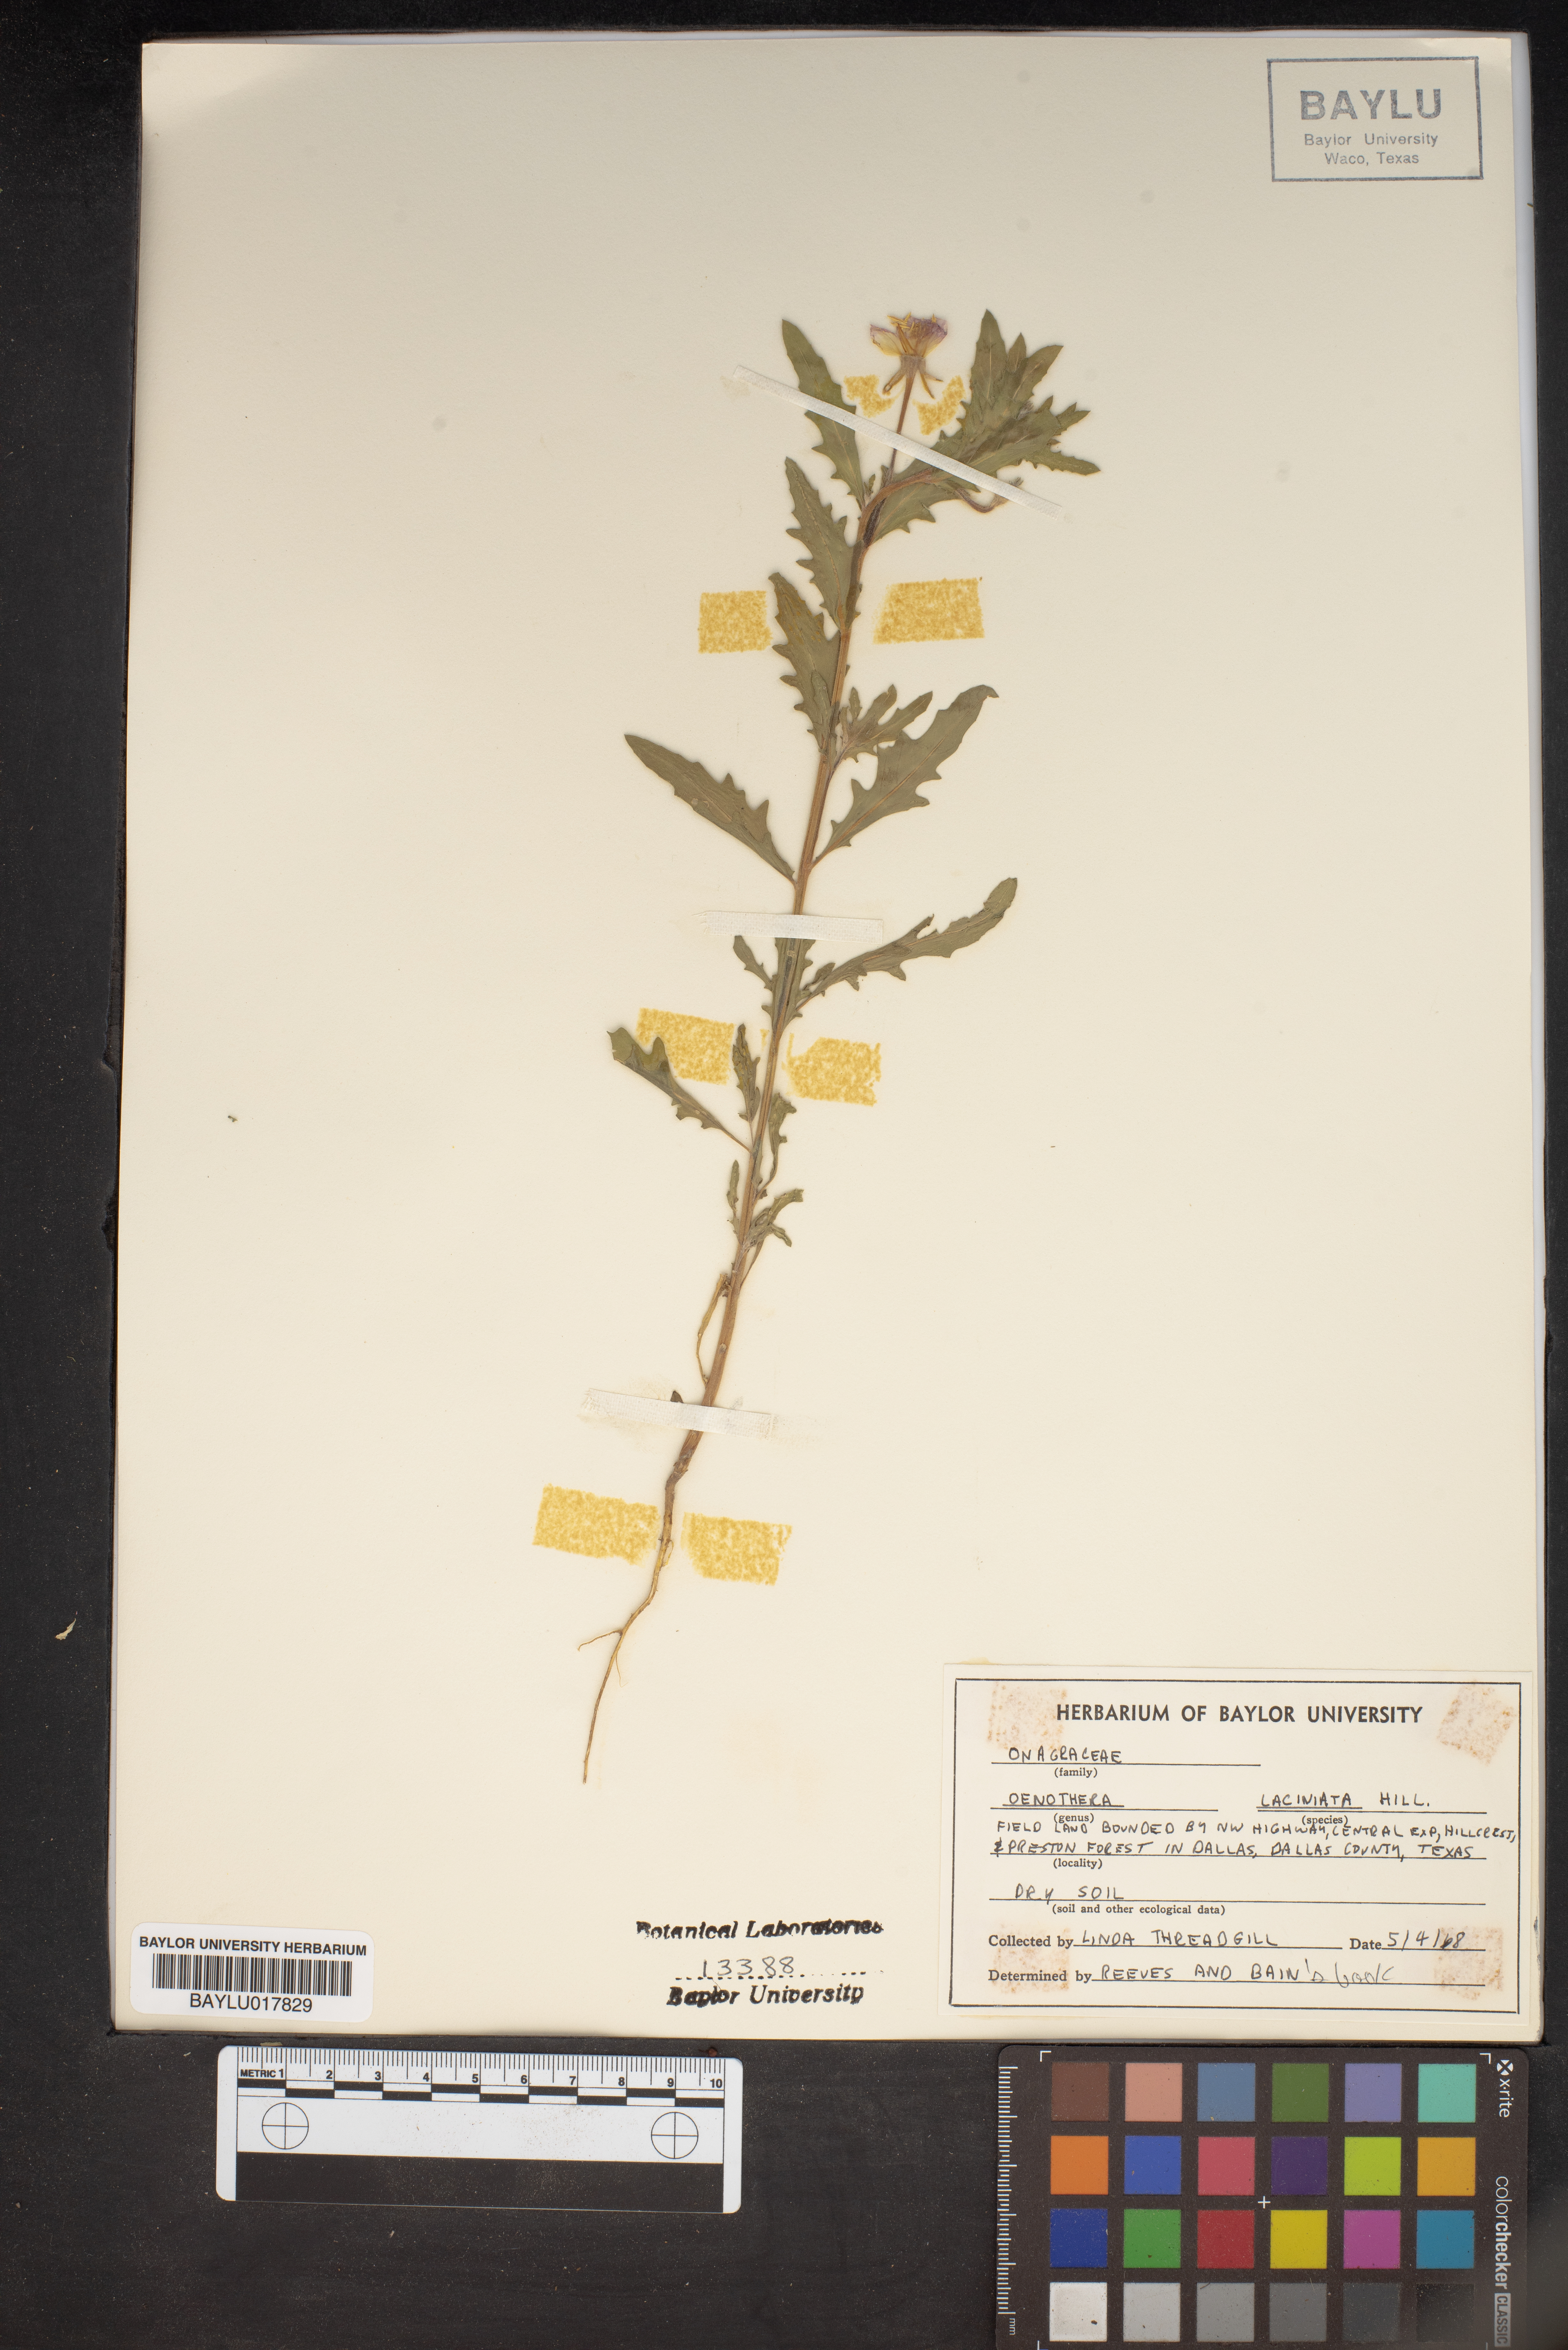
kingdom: Plantae
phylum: Tracheophyta
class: Magnoliopsida
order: Myrtales
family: Onagraceae
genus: Oenothera
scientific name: Oenothera laciniata
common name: Cut-leaved evening-primrose
